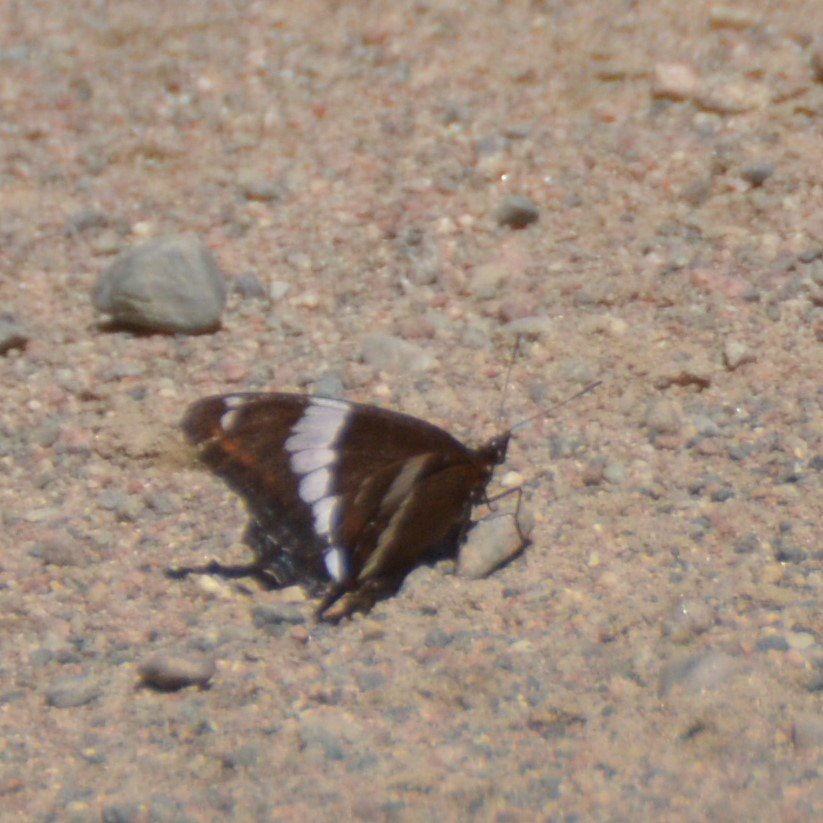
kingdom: Animalia
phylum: Arthropoda
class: Insecta
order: Lepidoptera
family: Nymphalidae
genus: Limenitis
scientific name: Limenitis arthemis
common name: Red-spotted Admiral
